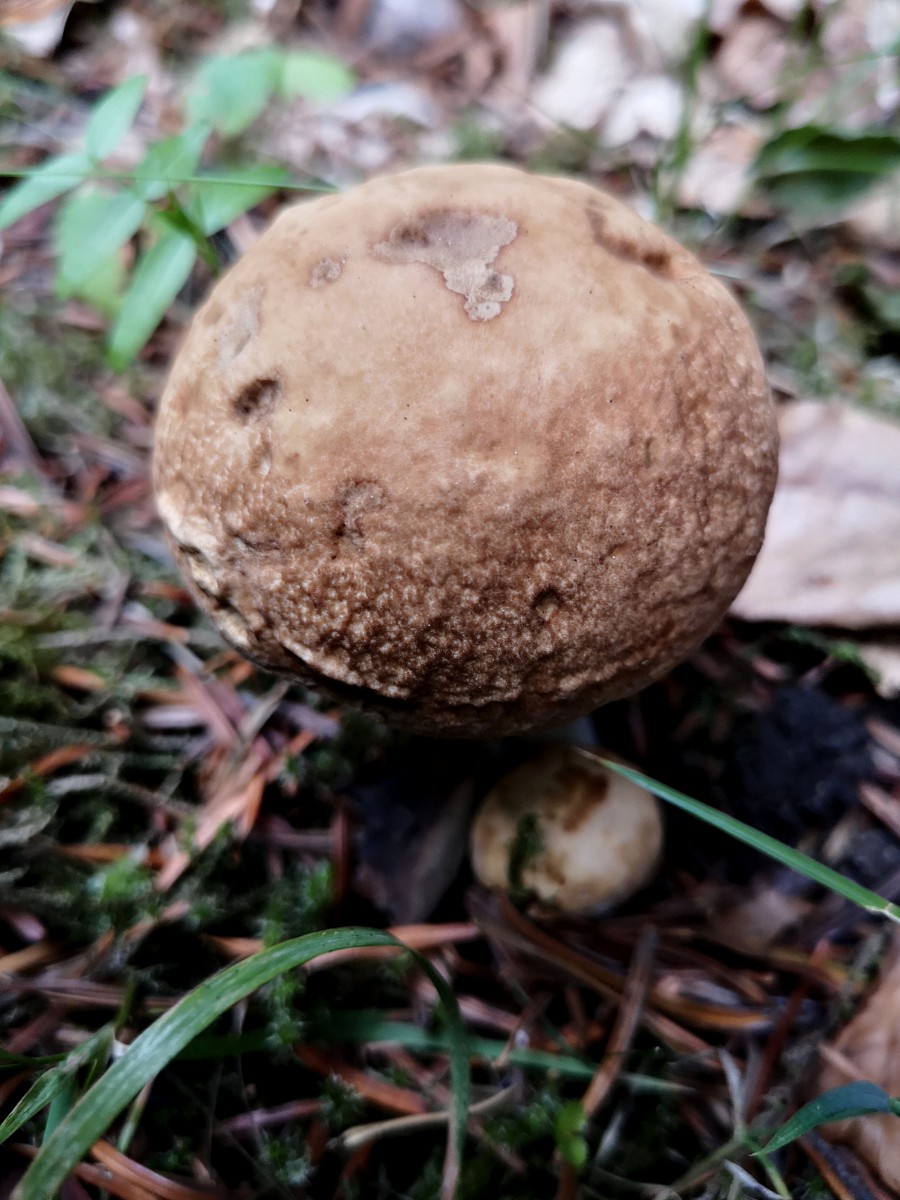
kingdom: Fungi
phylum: Basidiomycota
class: Agaricomycetes
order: Boletales
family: Boletaceae
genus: Boletus
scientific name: Boletus reticulatus
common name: sommer-rørhat
